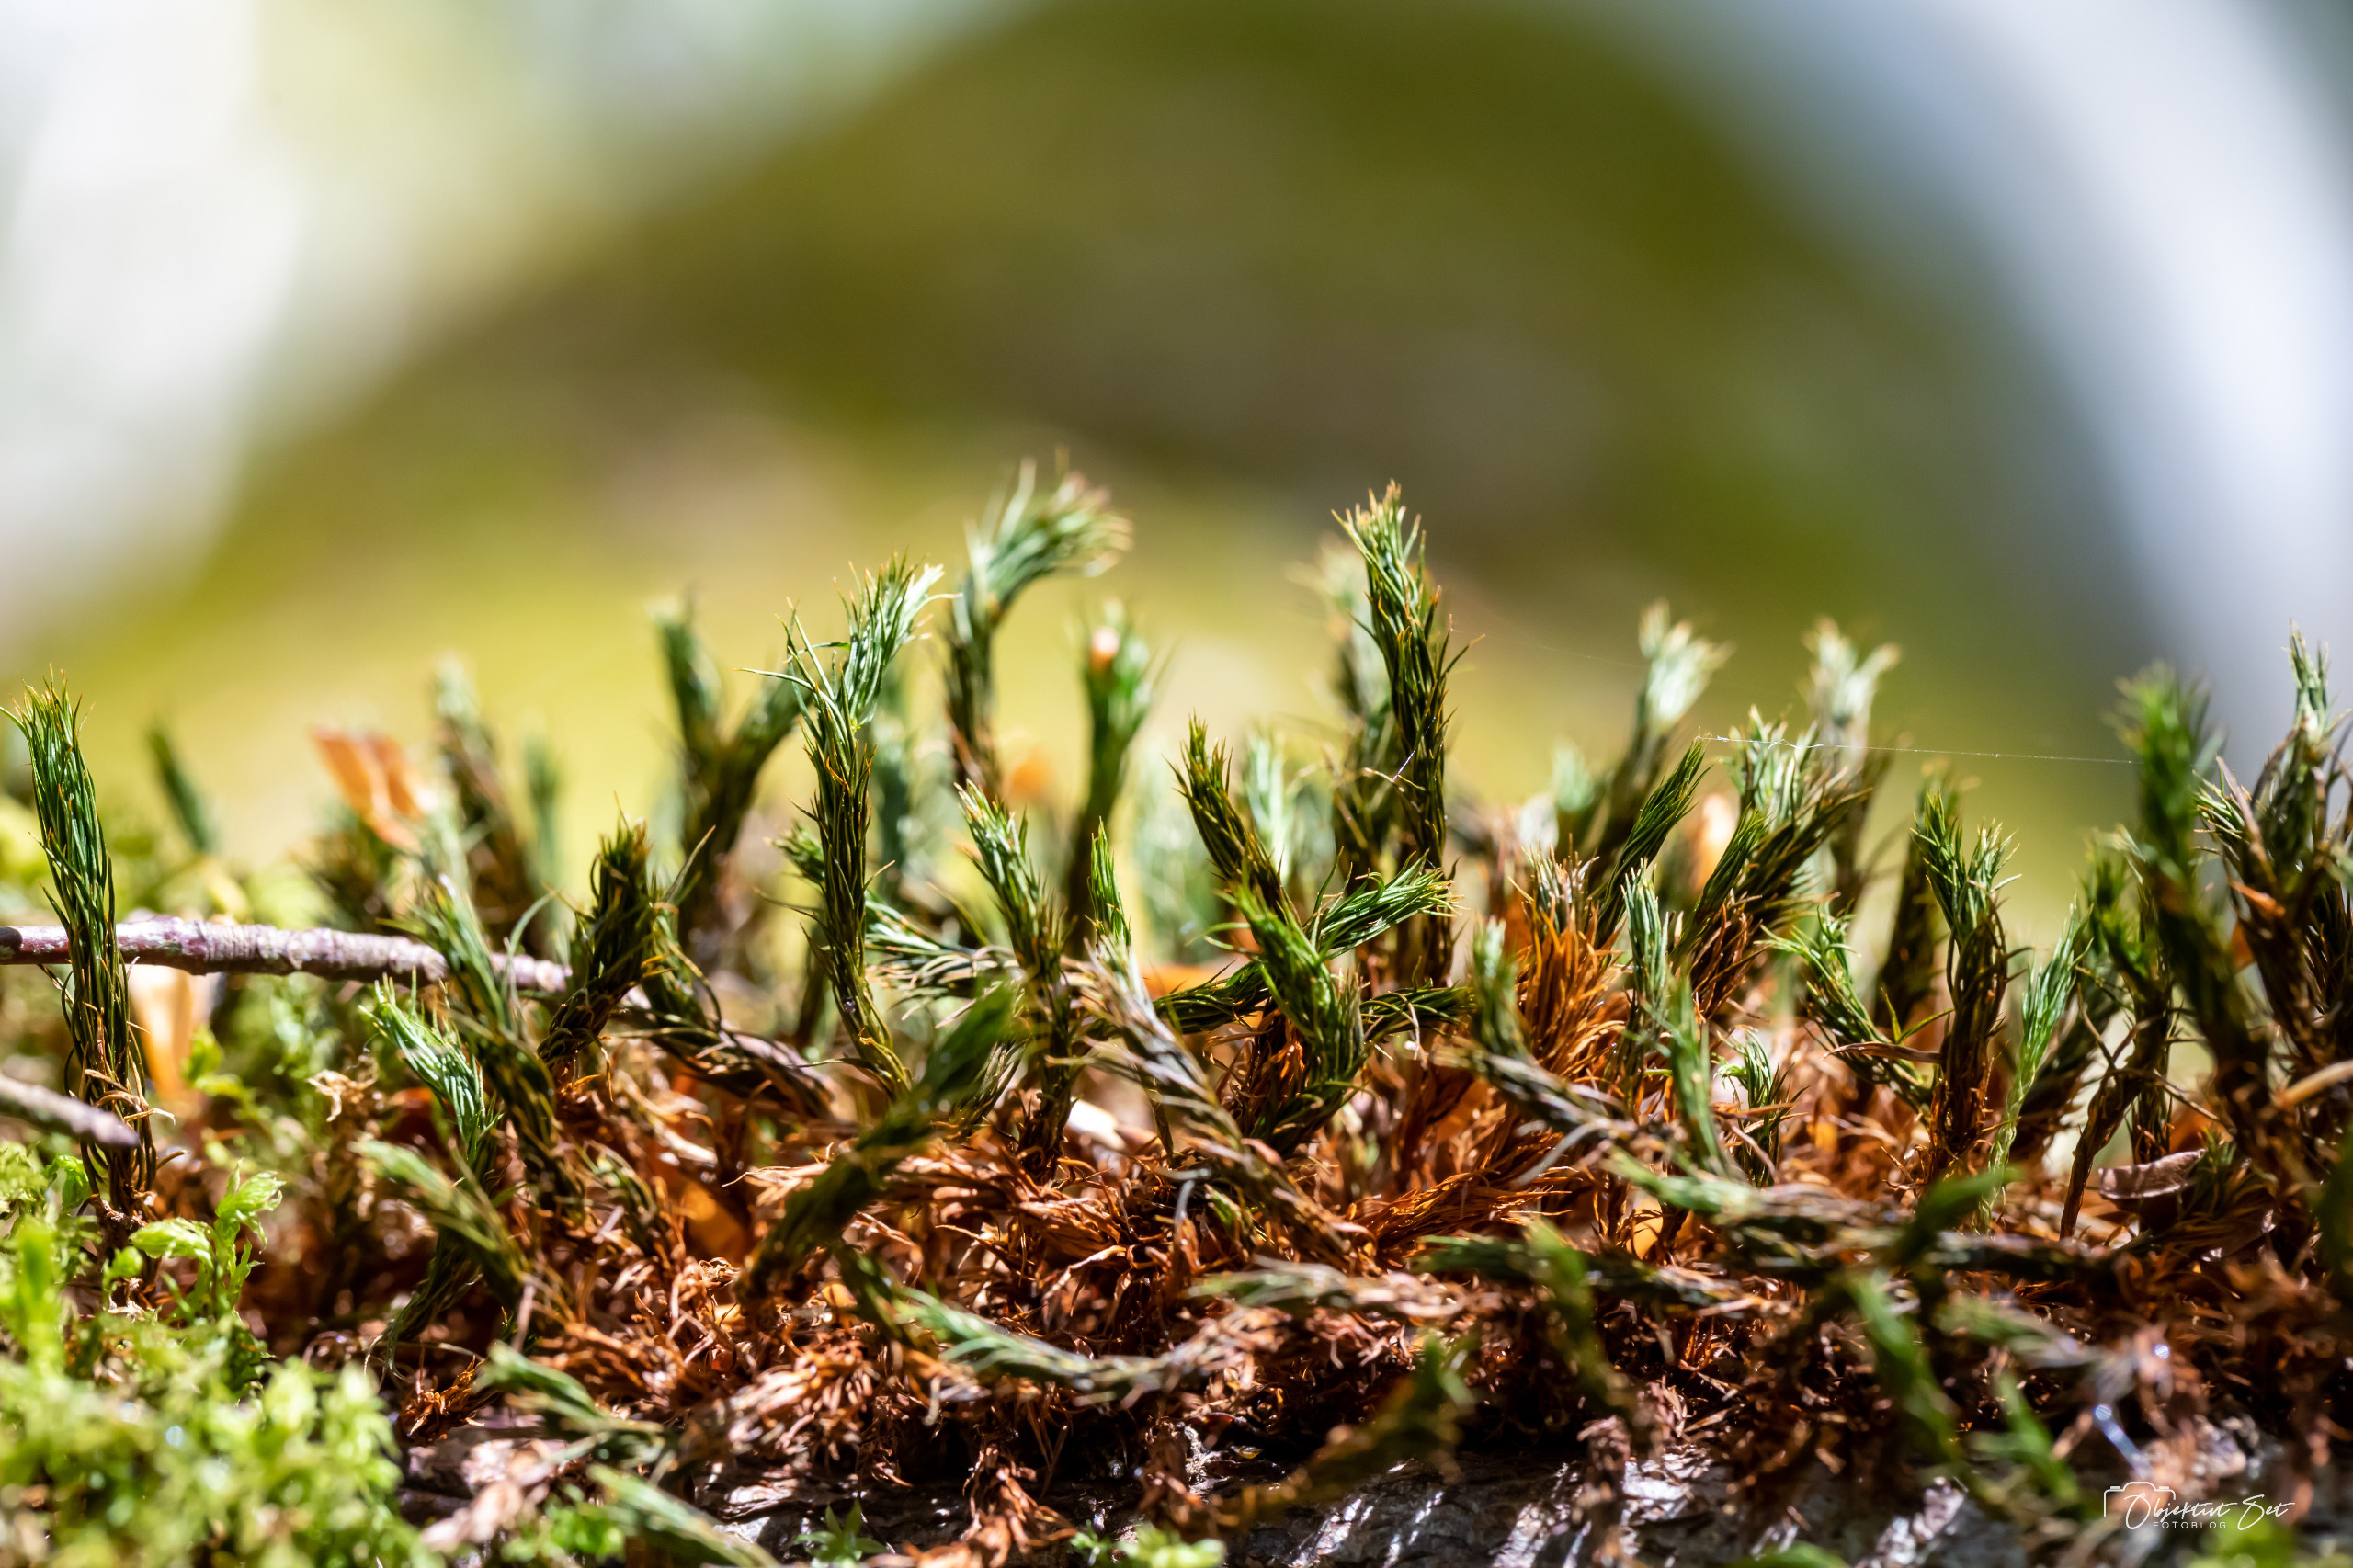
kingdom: Plantae
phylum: Bryophyta
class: Polytrichopsida
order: Polytrichales
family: Polytrichaceae
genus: Polytrichum
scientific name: Polytrichum
